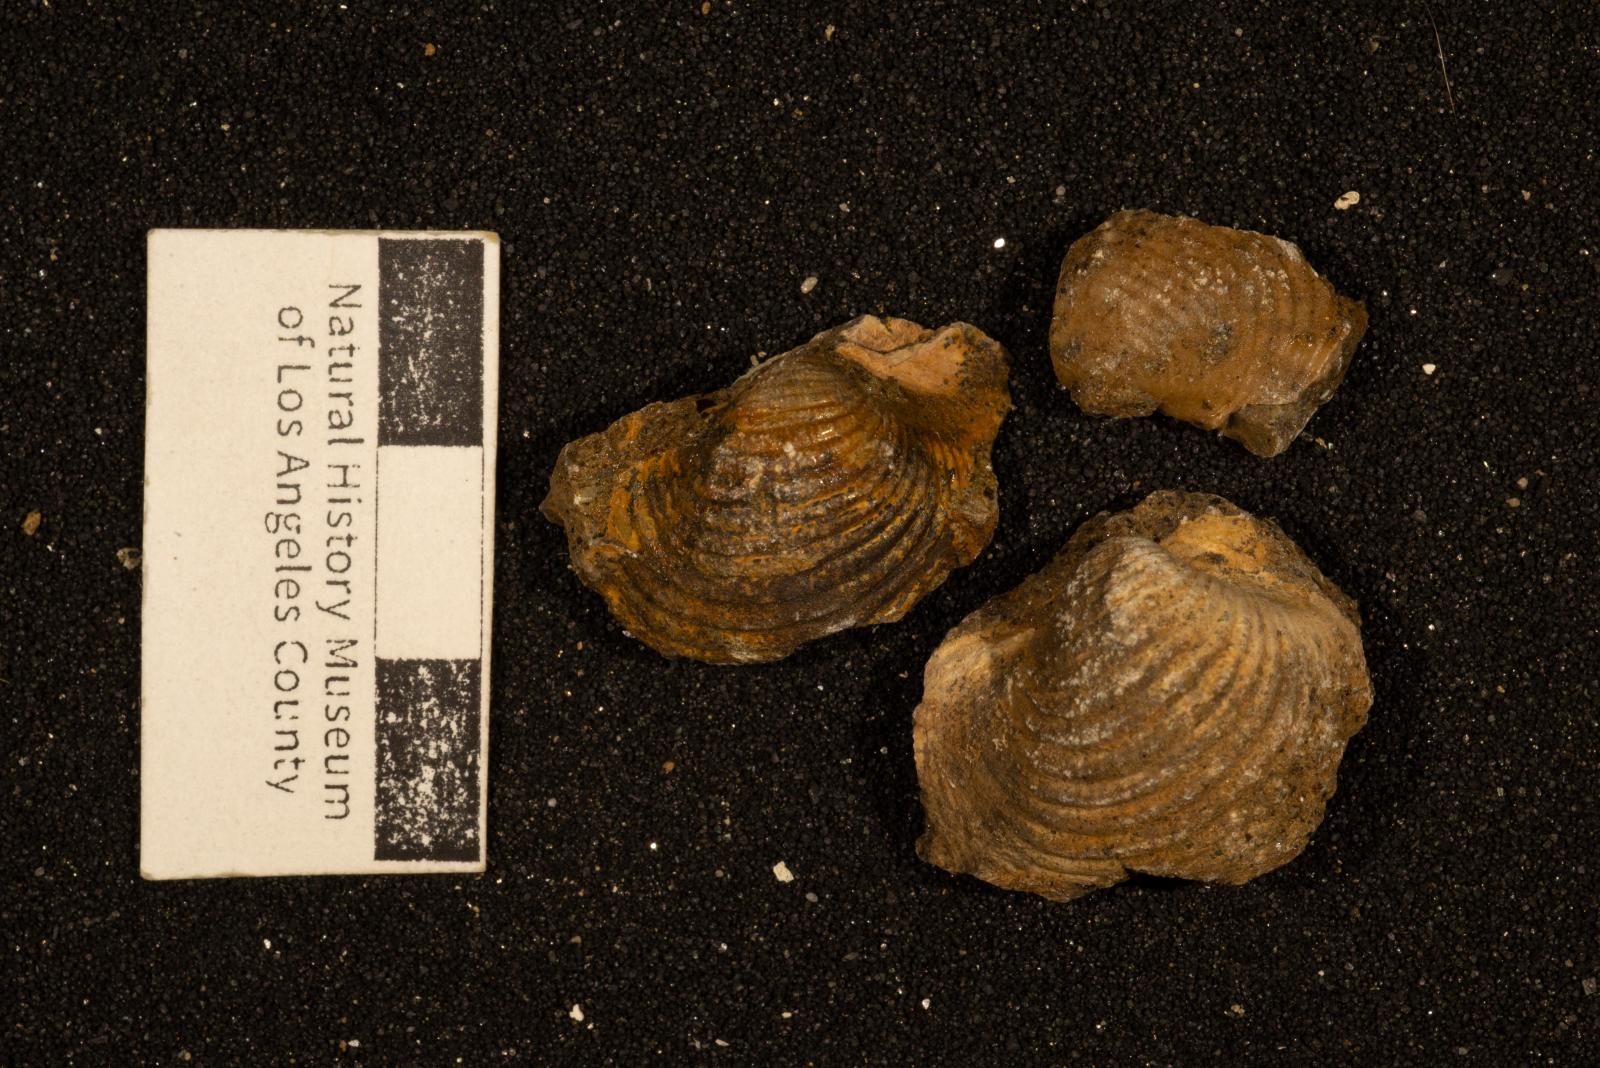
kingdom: Animalia
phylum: Mollusca
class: Bivalvia
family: Poromyidae
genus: Psilomya
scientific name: Psilomya Homomya hardingensis
